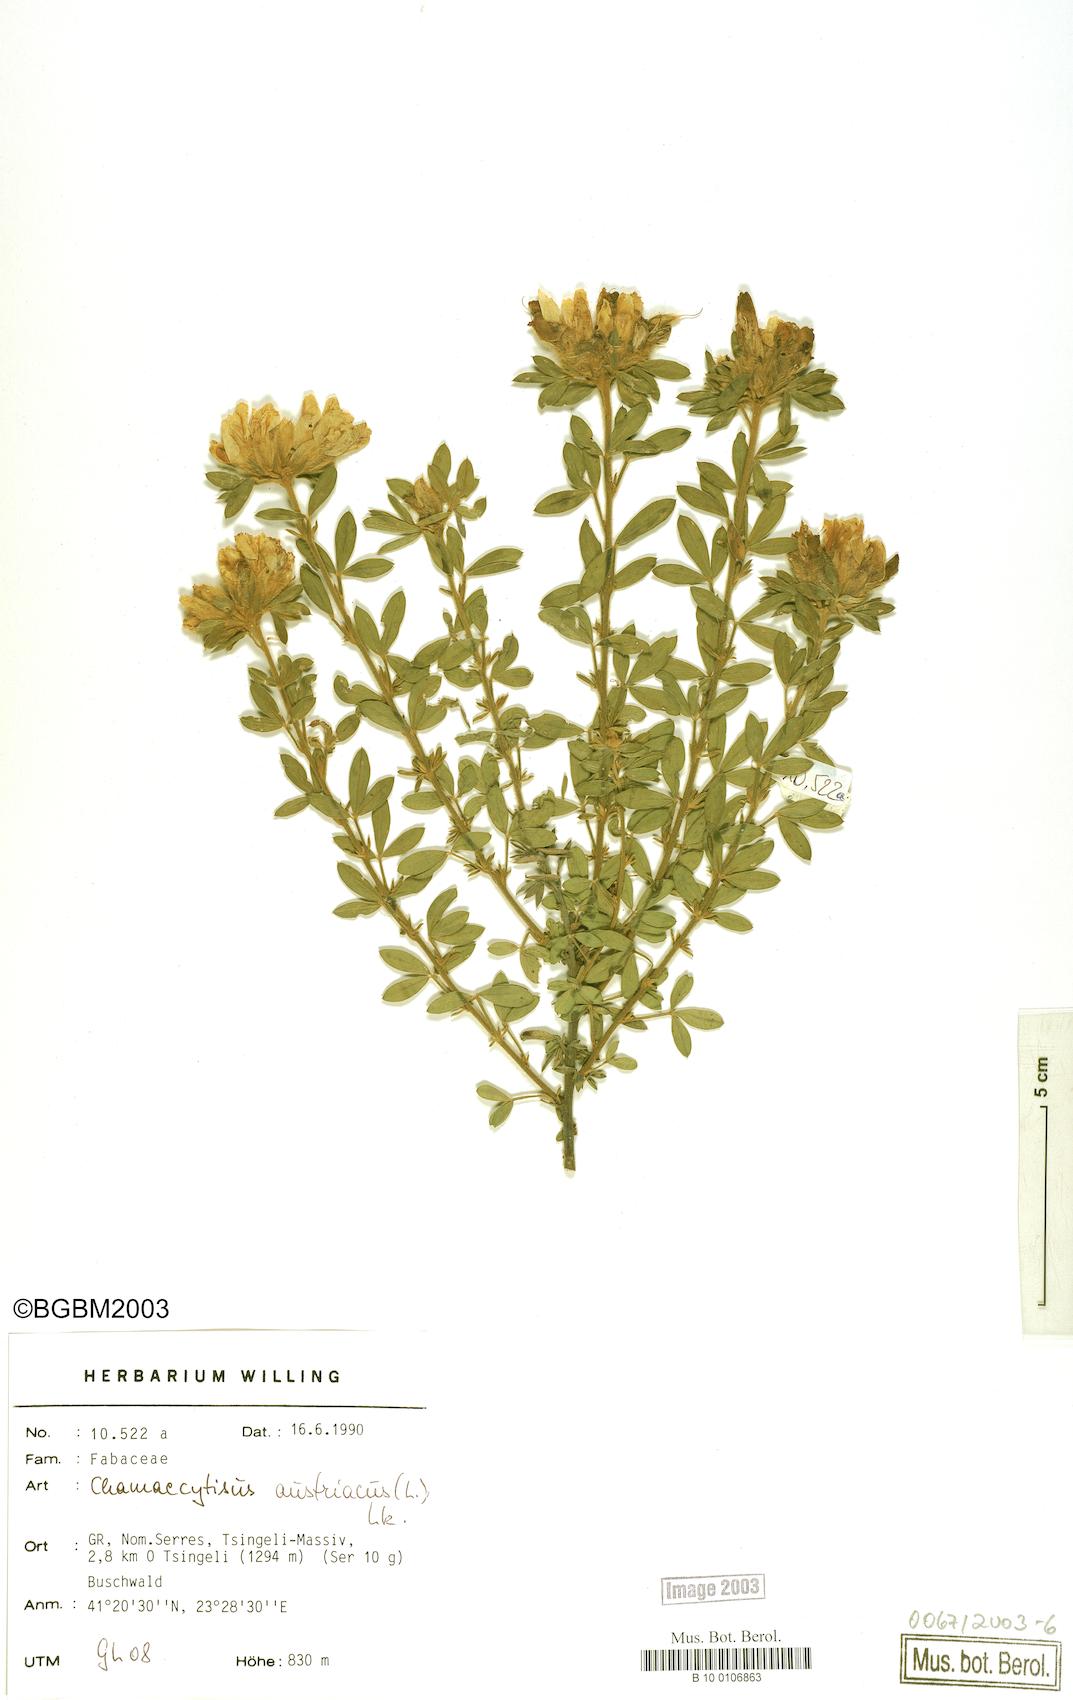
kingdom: Plantae
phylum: Tracheophyta
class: Magnoliopsida
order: Fabales
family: Fabaceae
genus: Chamaecytisus
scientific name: Chamaecytisus austriacus
